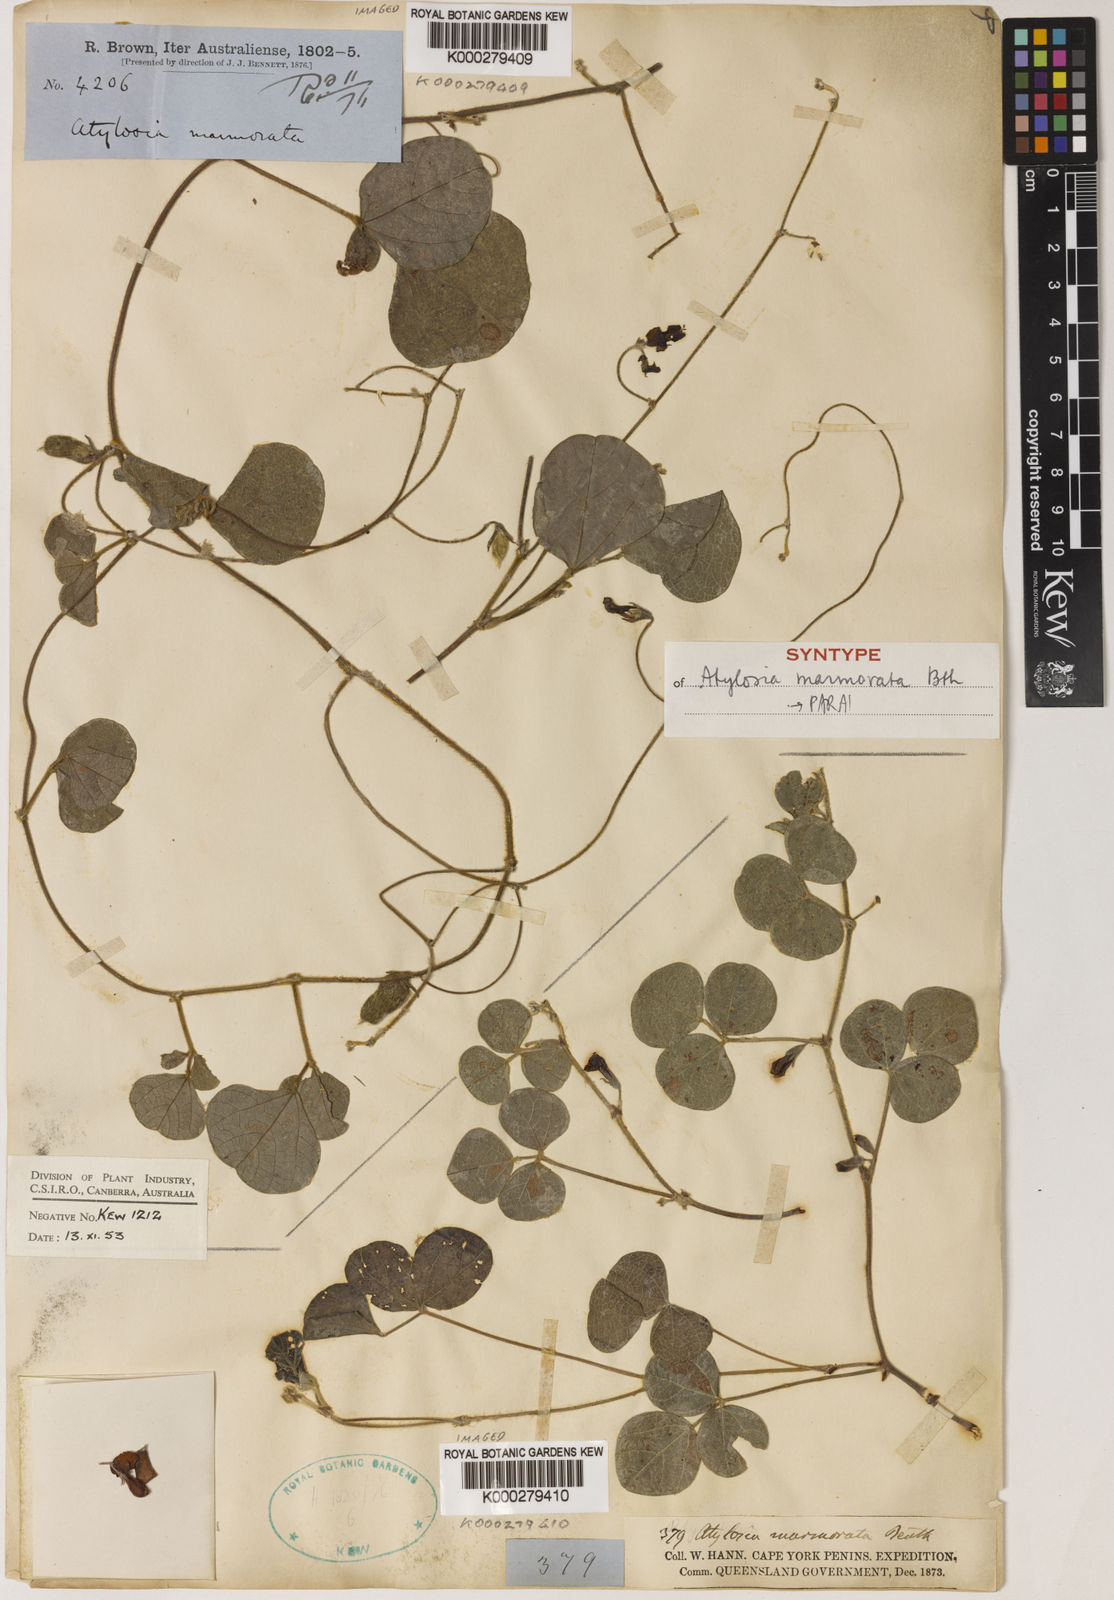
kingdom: Plantae
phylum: Tracheophyta
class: Magnoliopsida
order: Fabales
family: Fabaceae
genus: Cajanus
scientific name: Cajanus marmoratus
